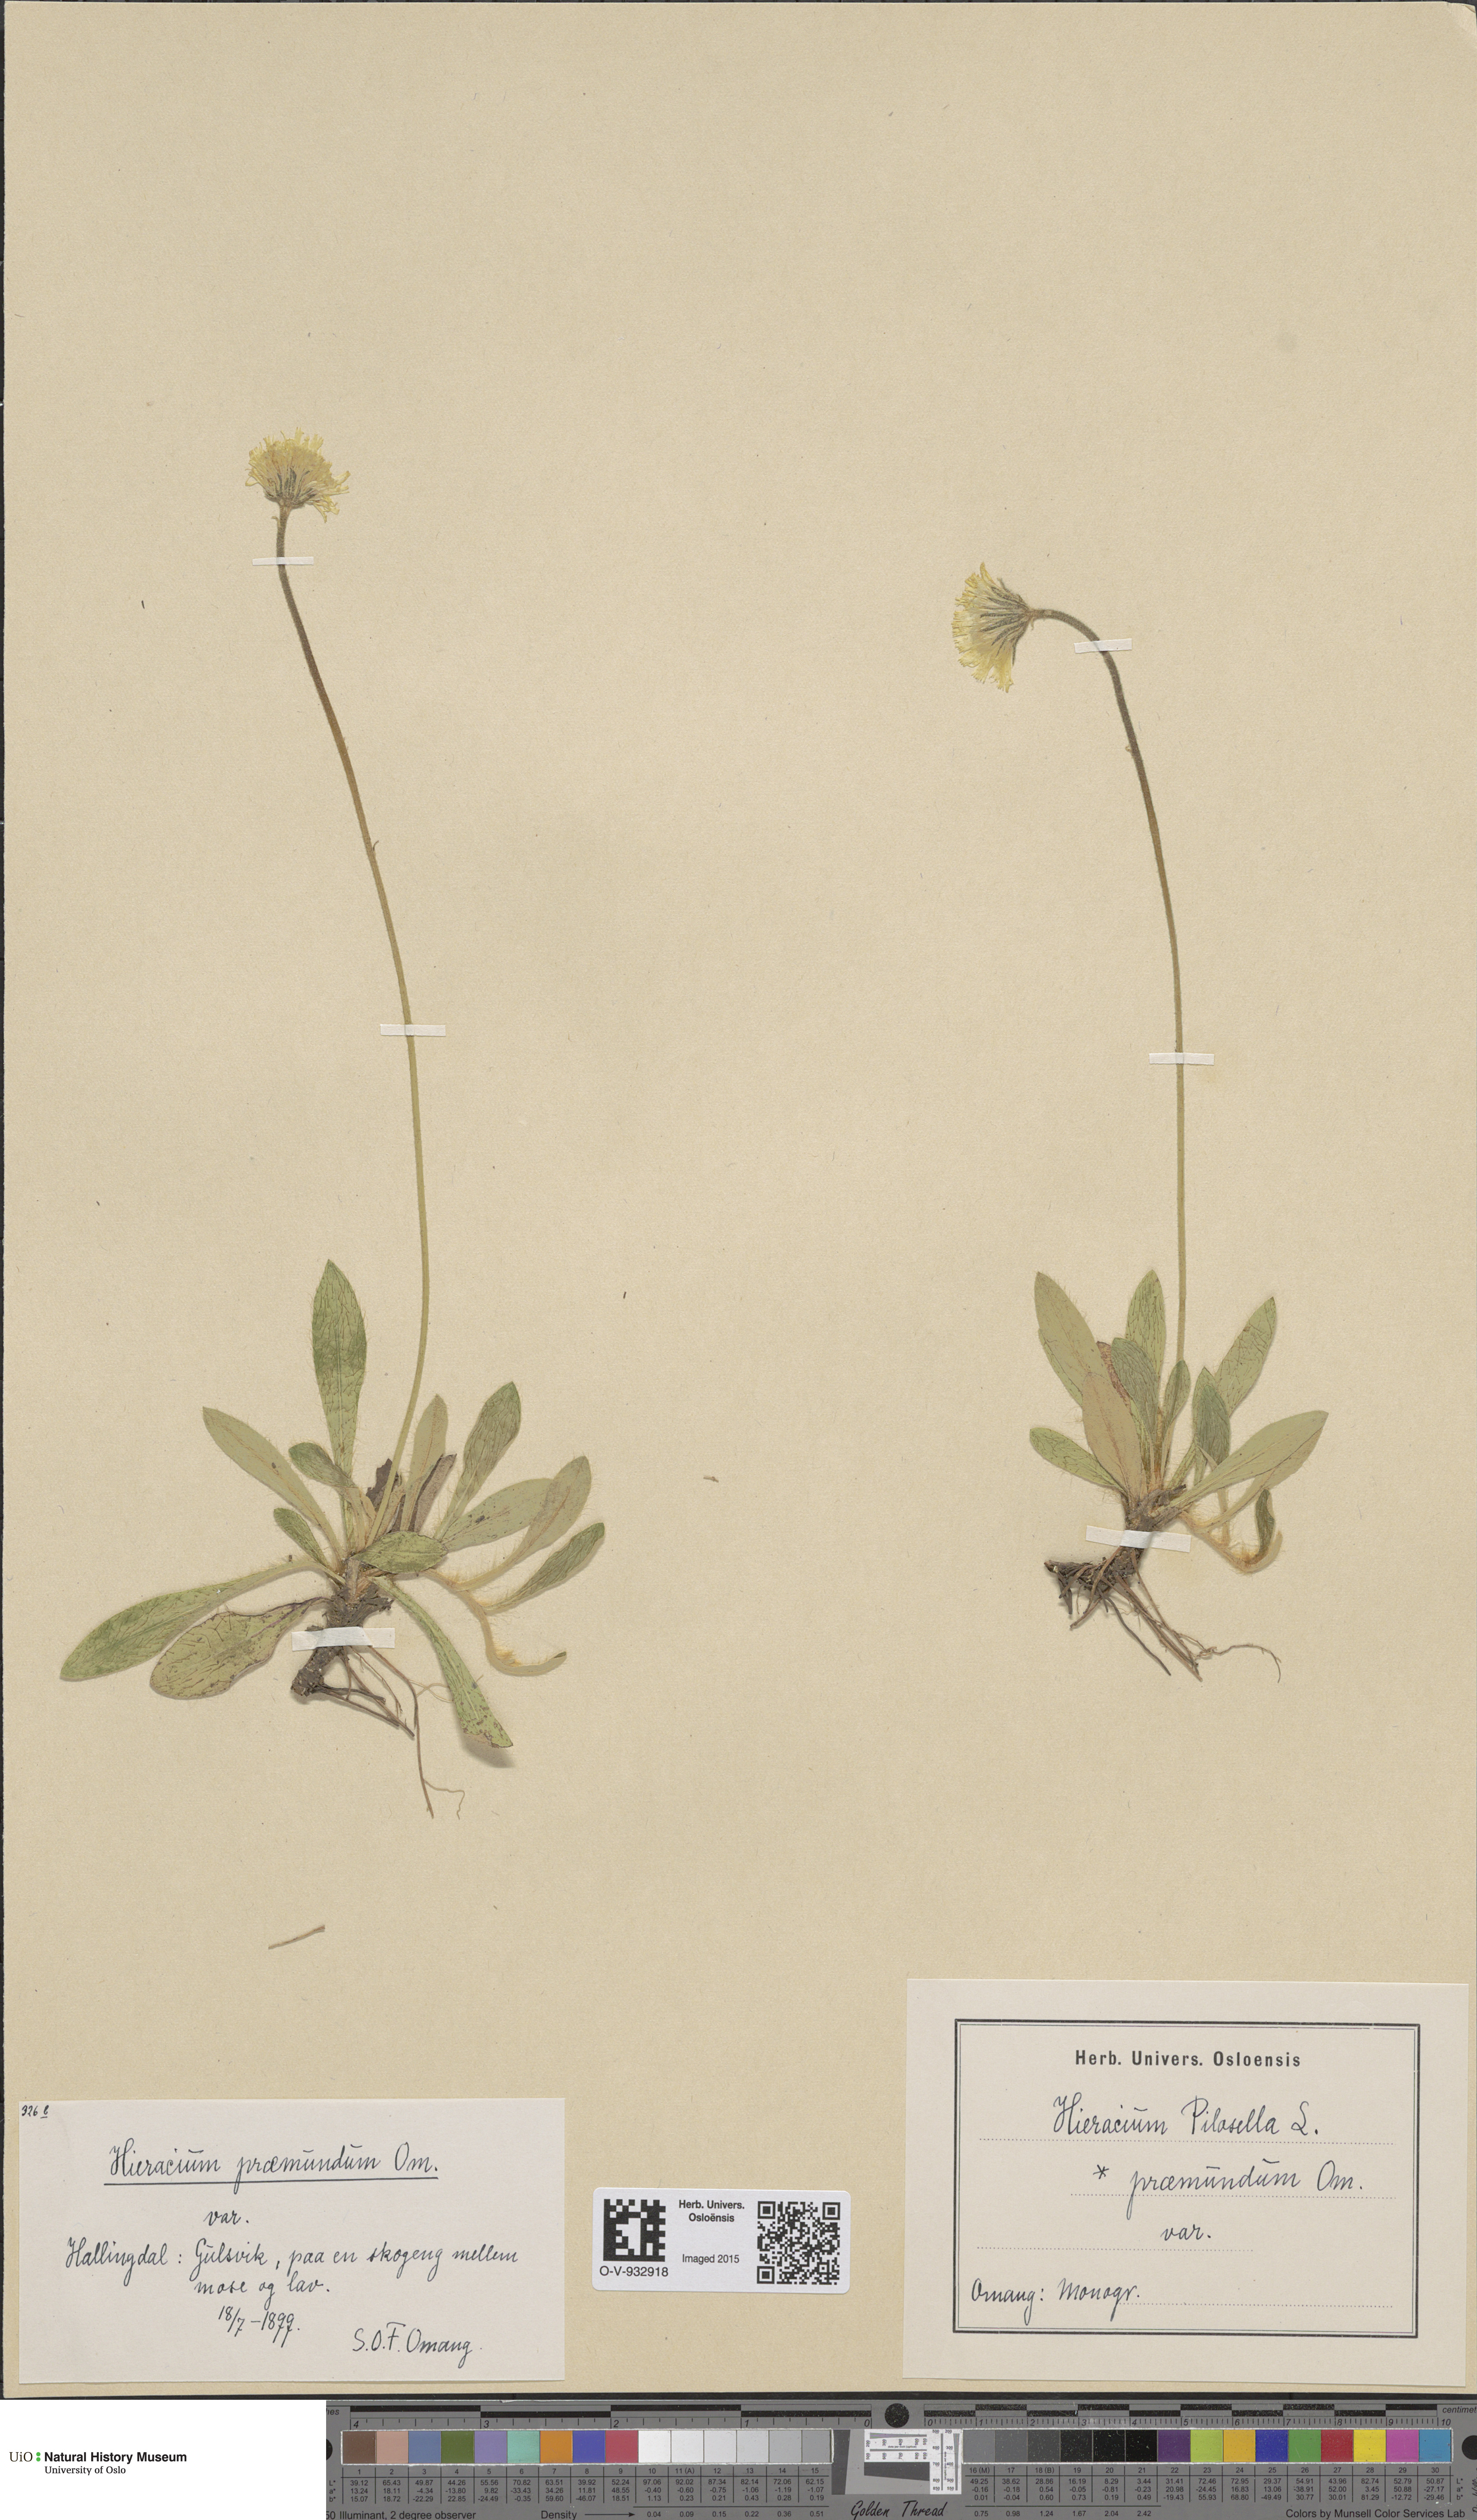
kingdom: Plantae
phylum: Tracheophyta
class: Magnoliopsida
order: Asterales
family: Asteraceae
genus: Pilosella
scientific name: Pilosella officinarum
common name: Mouse-ear hawkweed
